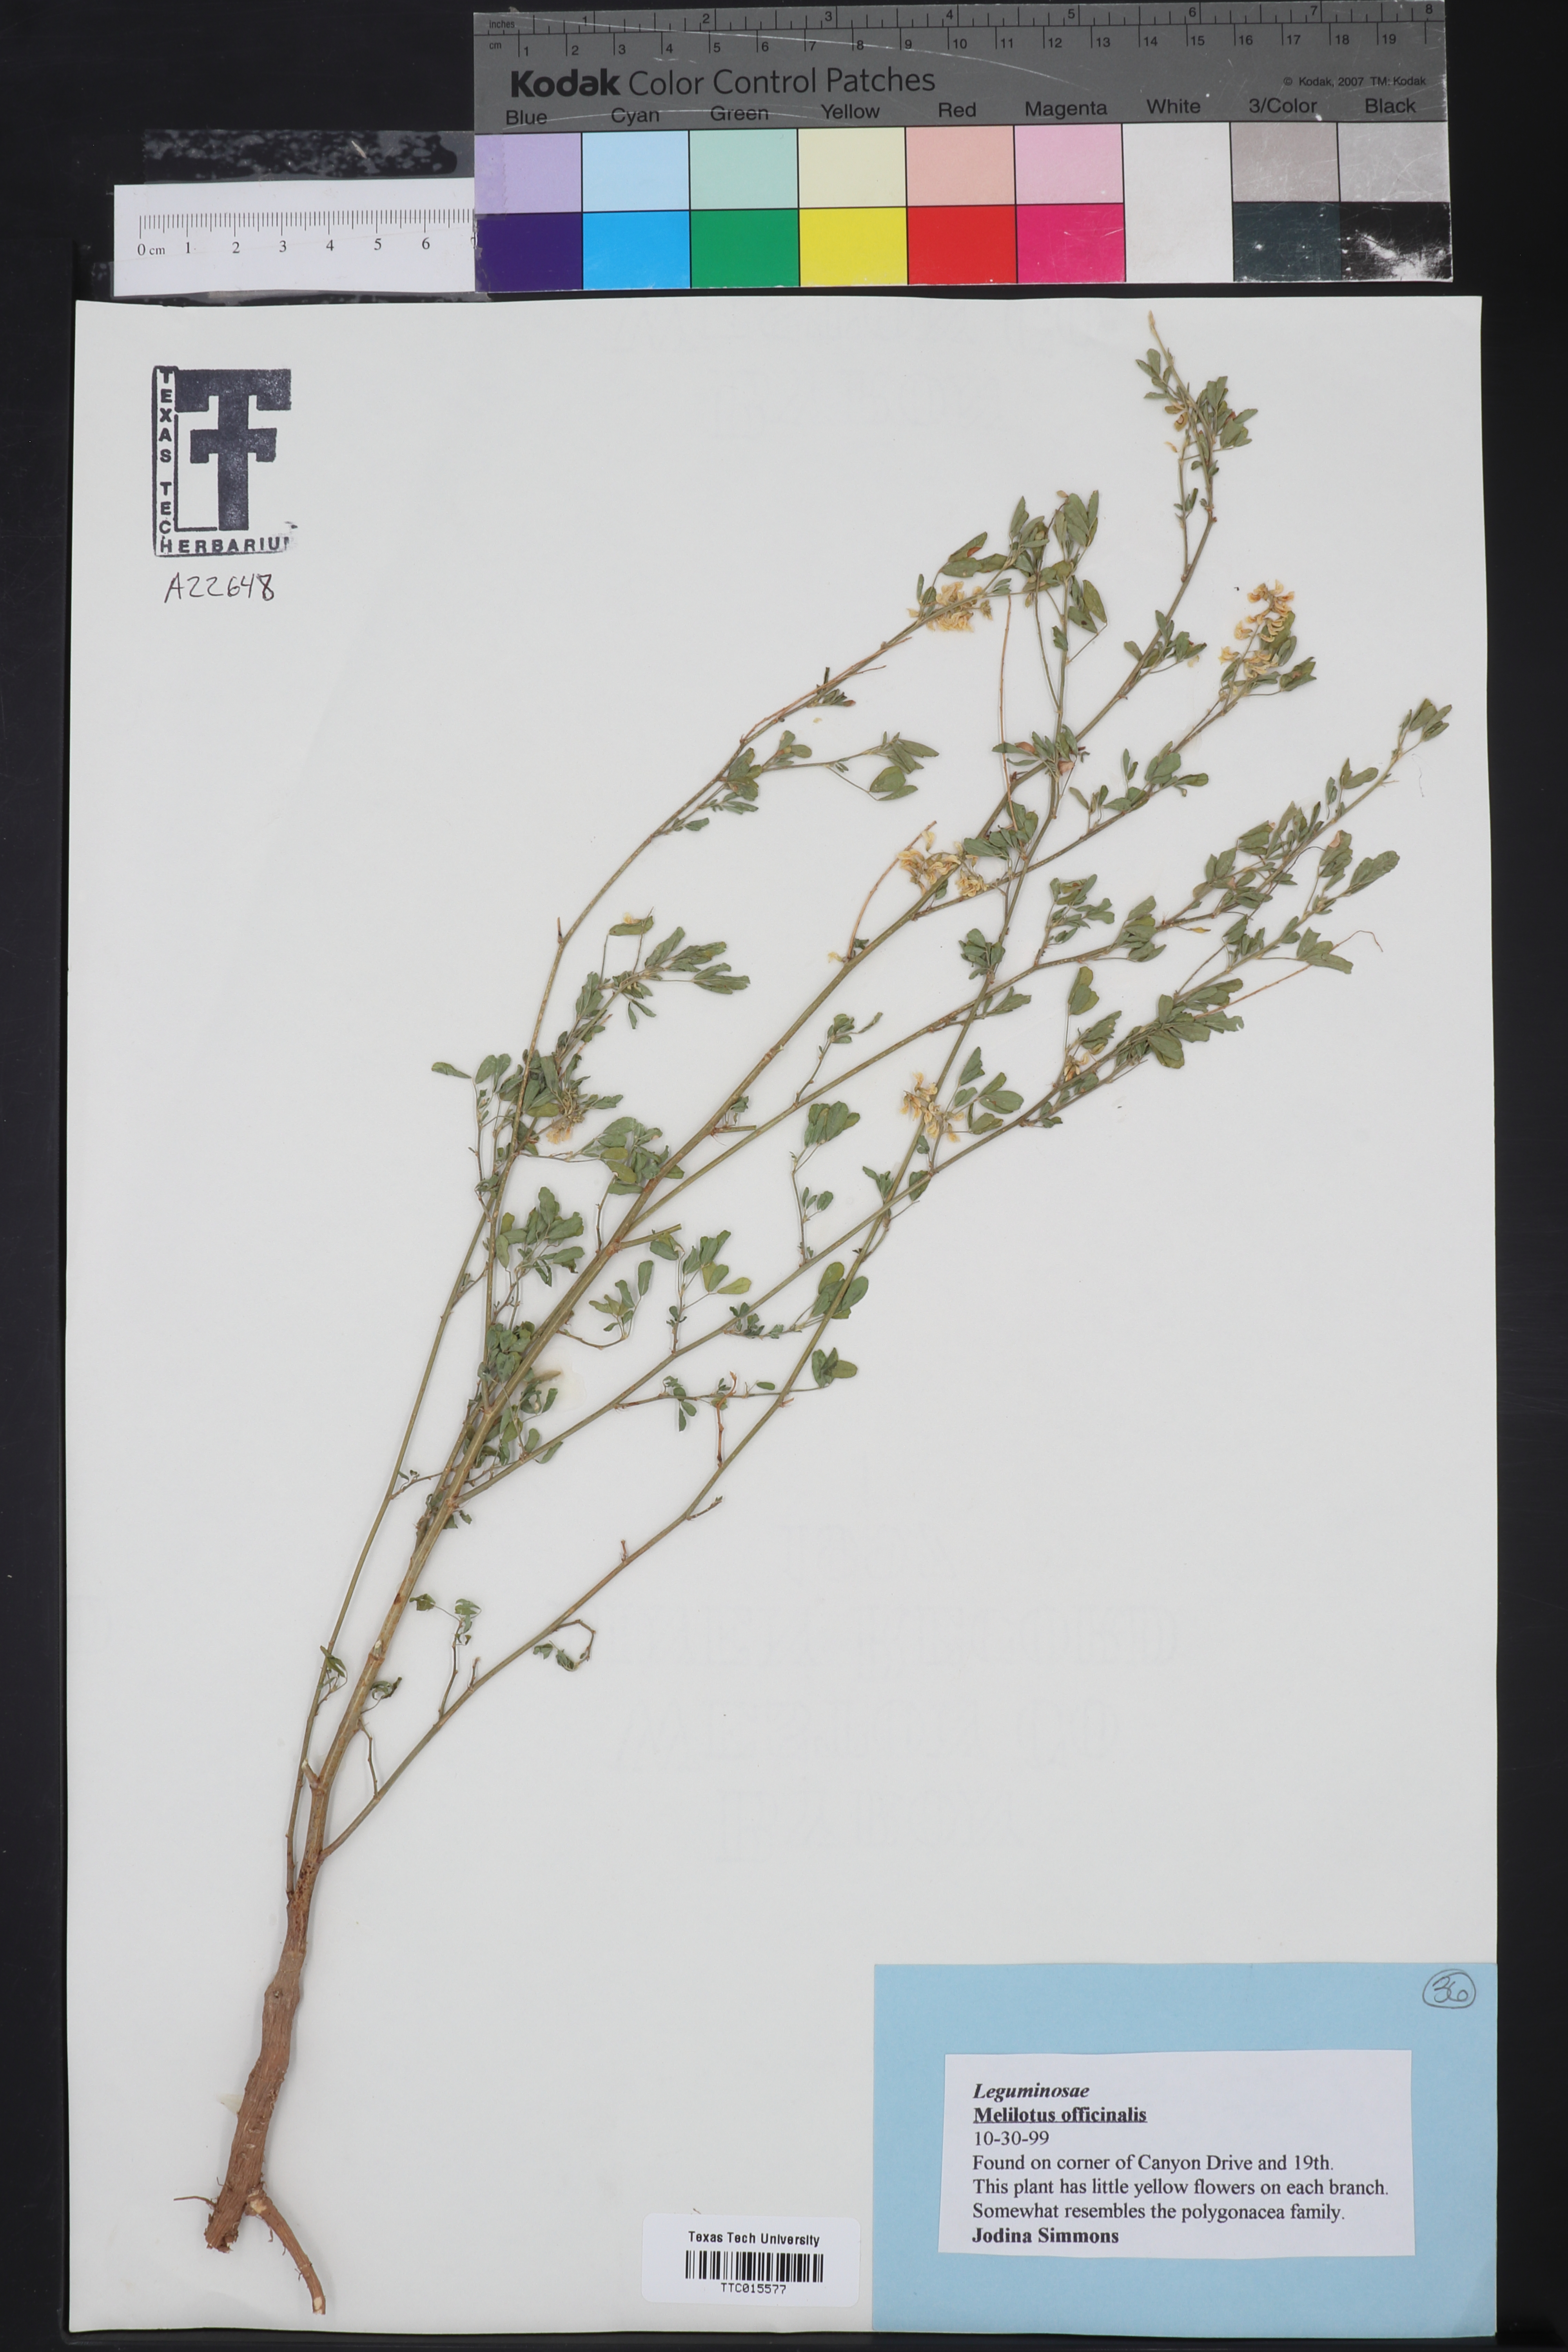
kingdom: Plantae
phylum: Tracheophyta
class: Magnoliopsida
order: Fabales
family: Fabaceae
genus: Melilotus
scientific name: Melilotus officinalis
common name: Sweetclover
